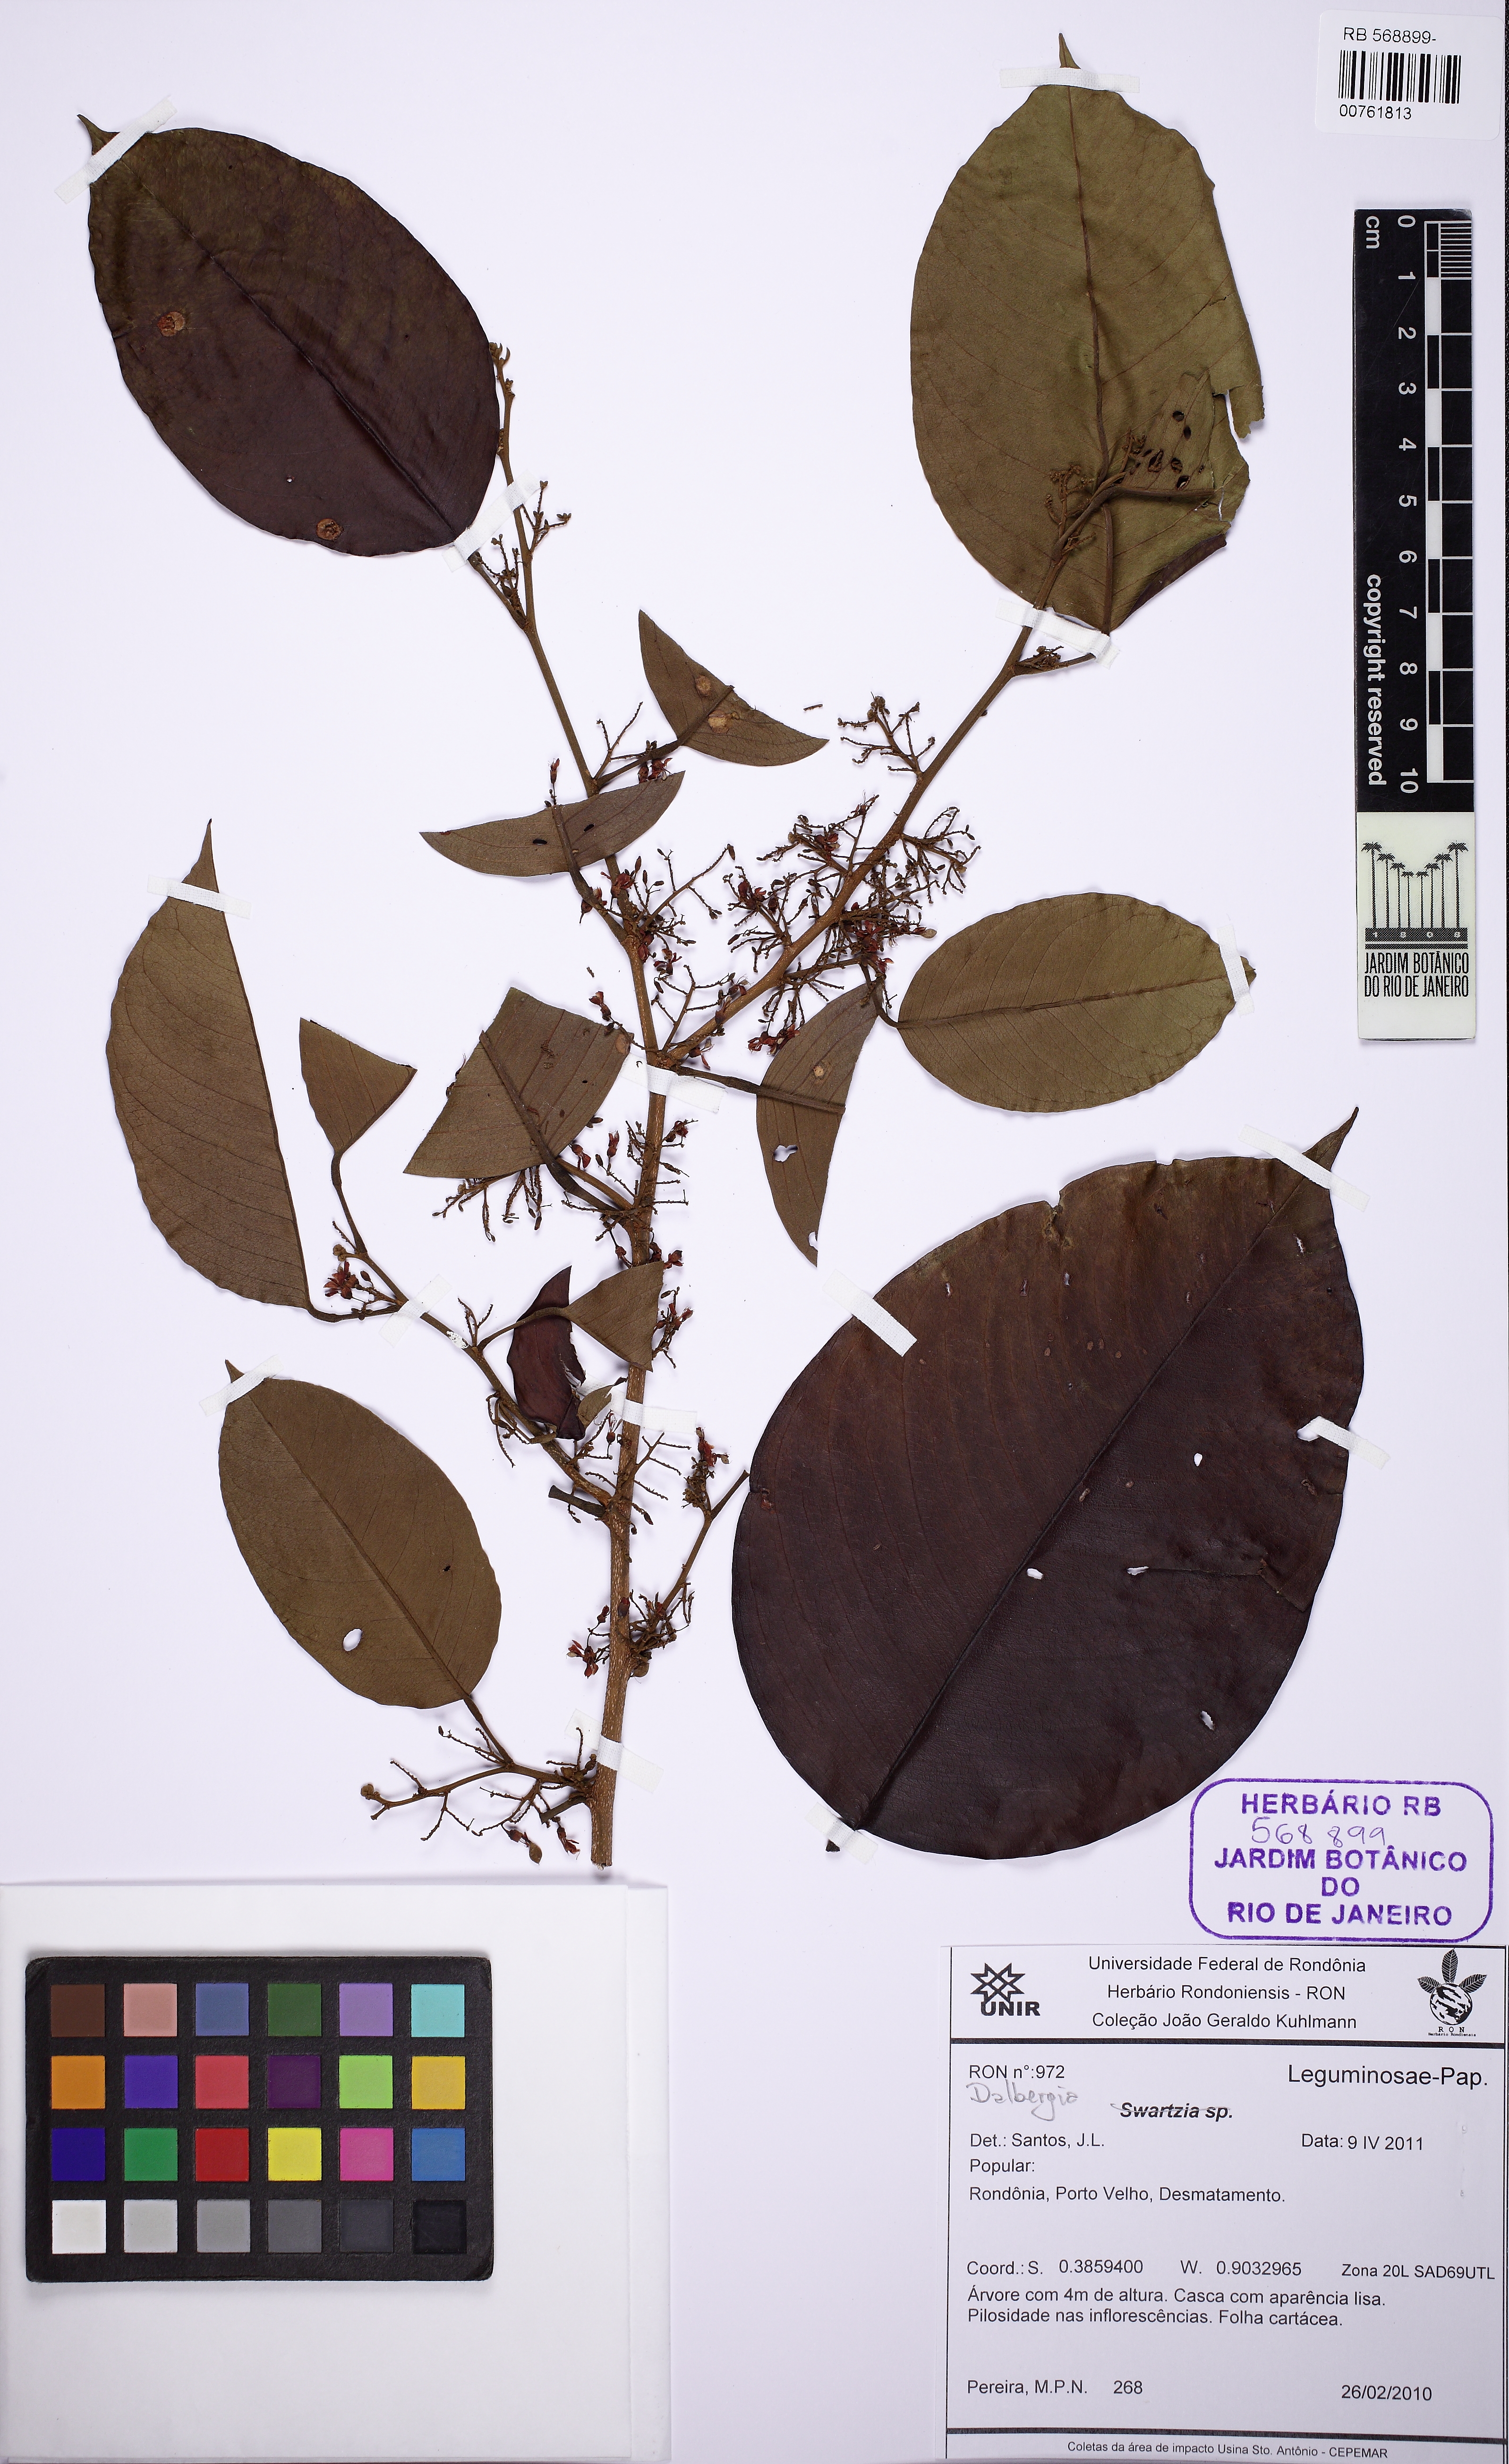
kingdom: Plantae
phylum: Tracheophyta
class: Magnoliopsida
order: Fabales
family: Fabaceae
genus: Dalbergia
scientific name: Dalbergia
